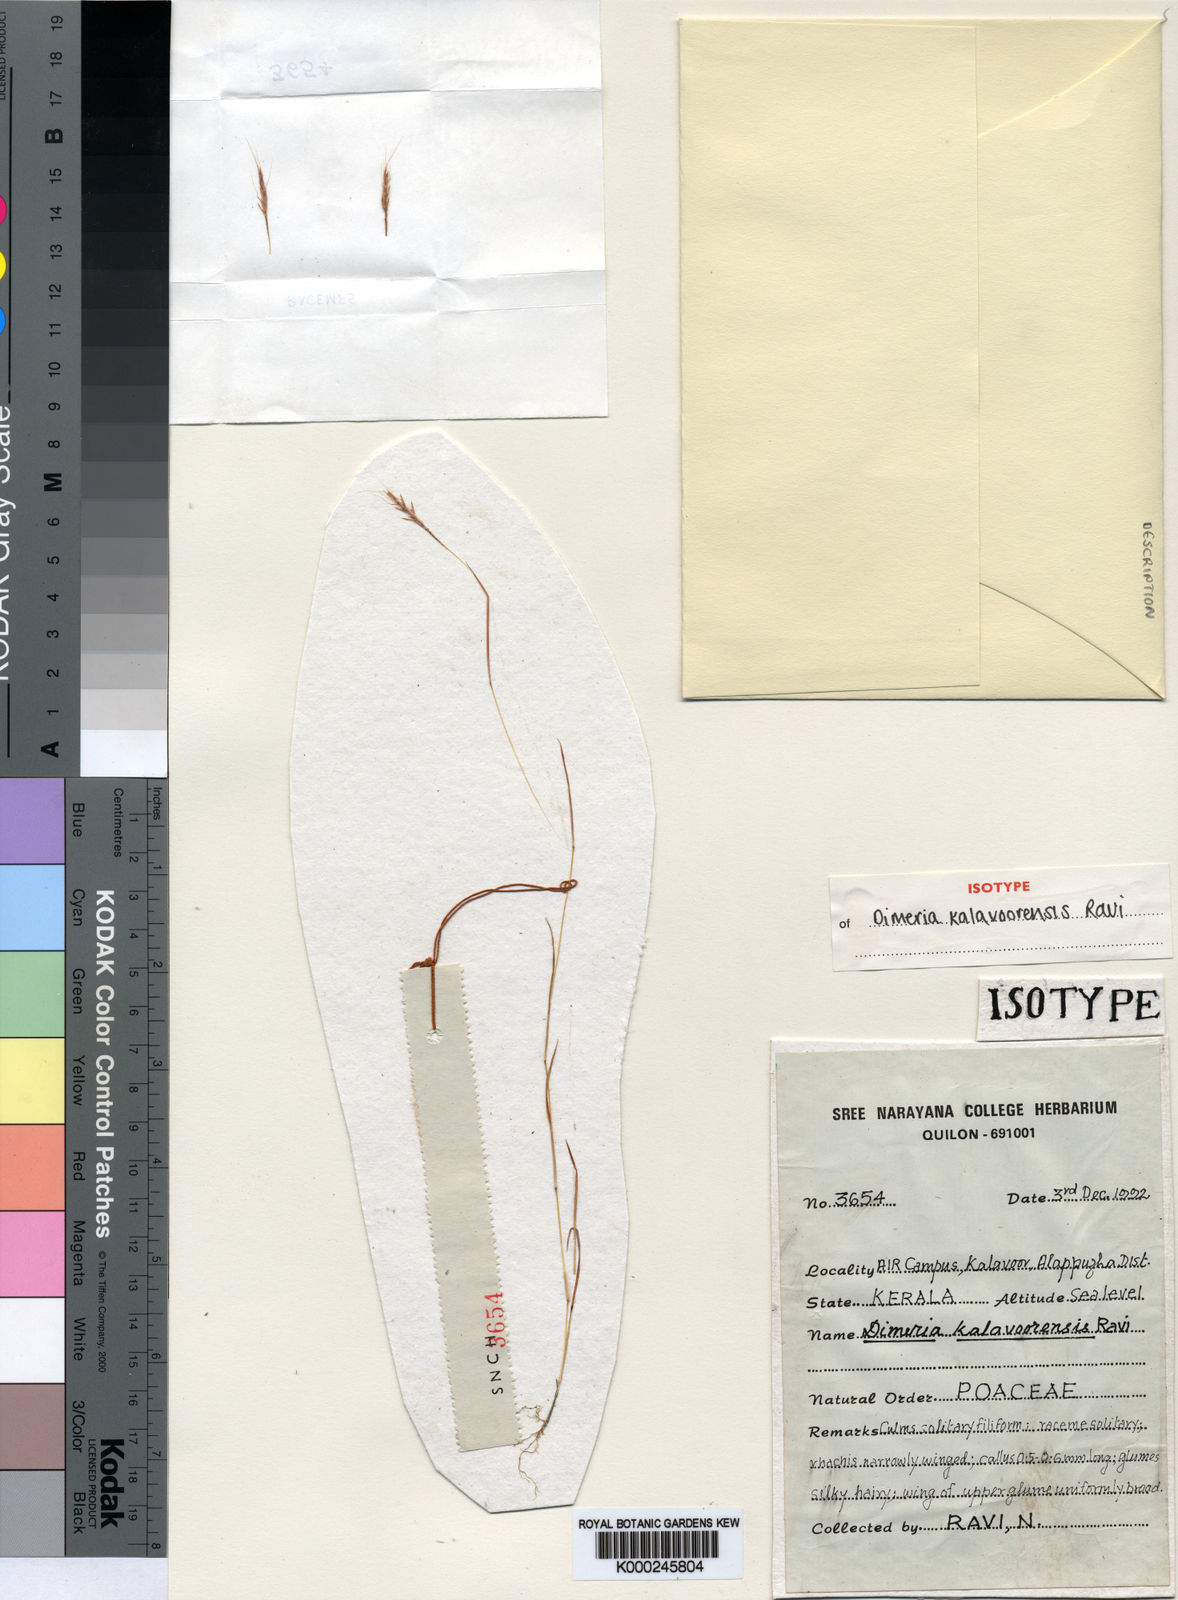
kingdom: Plantae
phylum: Tracheophyta
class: Liliopsida
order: Poales
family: Poaceae
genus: Dimeria
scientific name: Dimeria kalavoorensis
